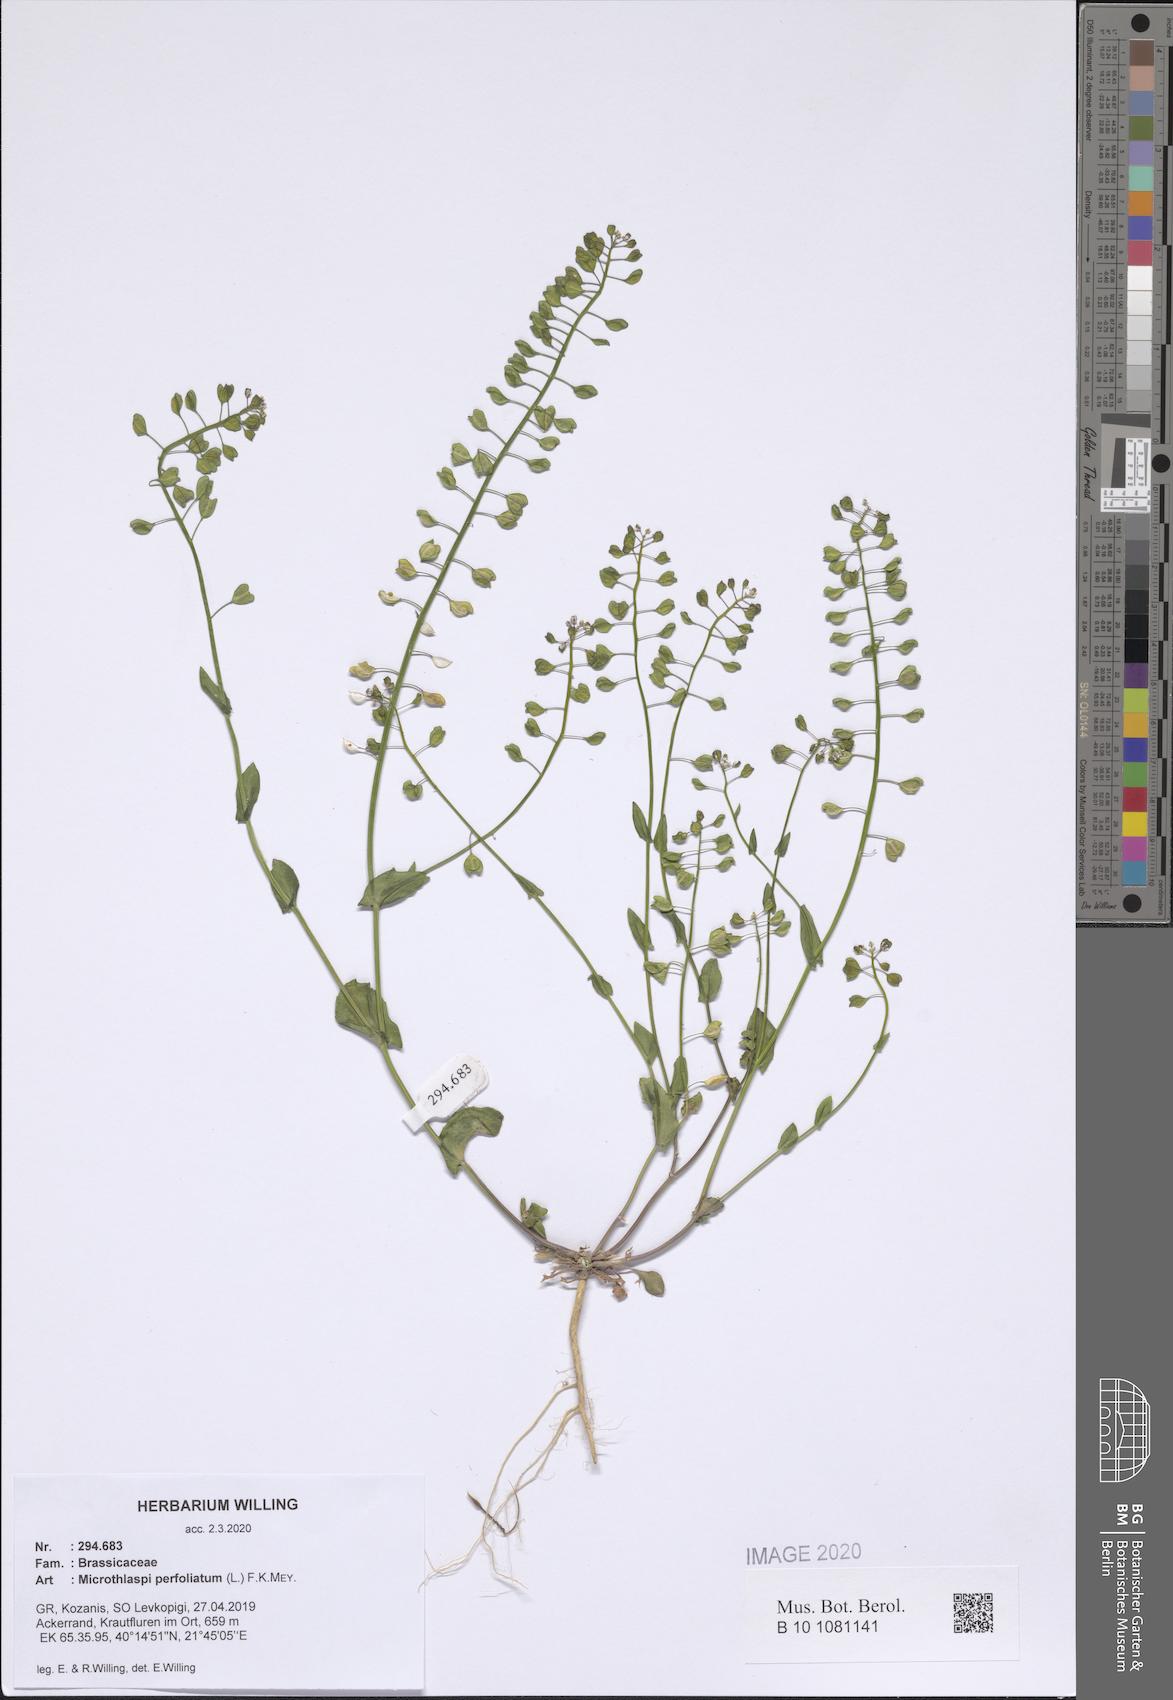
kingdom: Plantae
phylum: Tracheophyta
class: Magnoliopsida
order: Brassicales
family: Brassicaceae
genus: Noccaea
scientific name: Noccaea perfoliata
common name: Perfoliate pennycress
